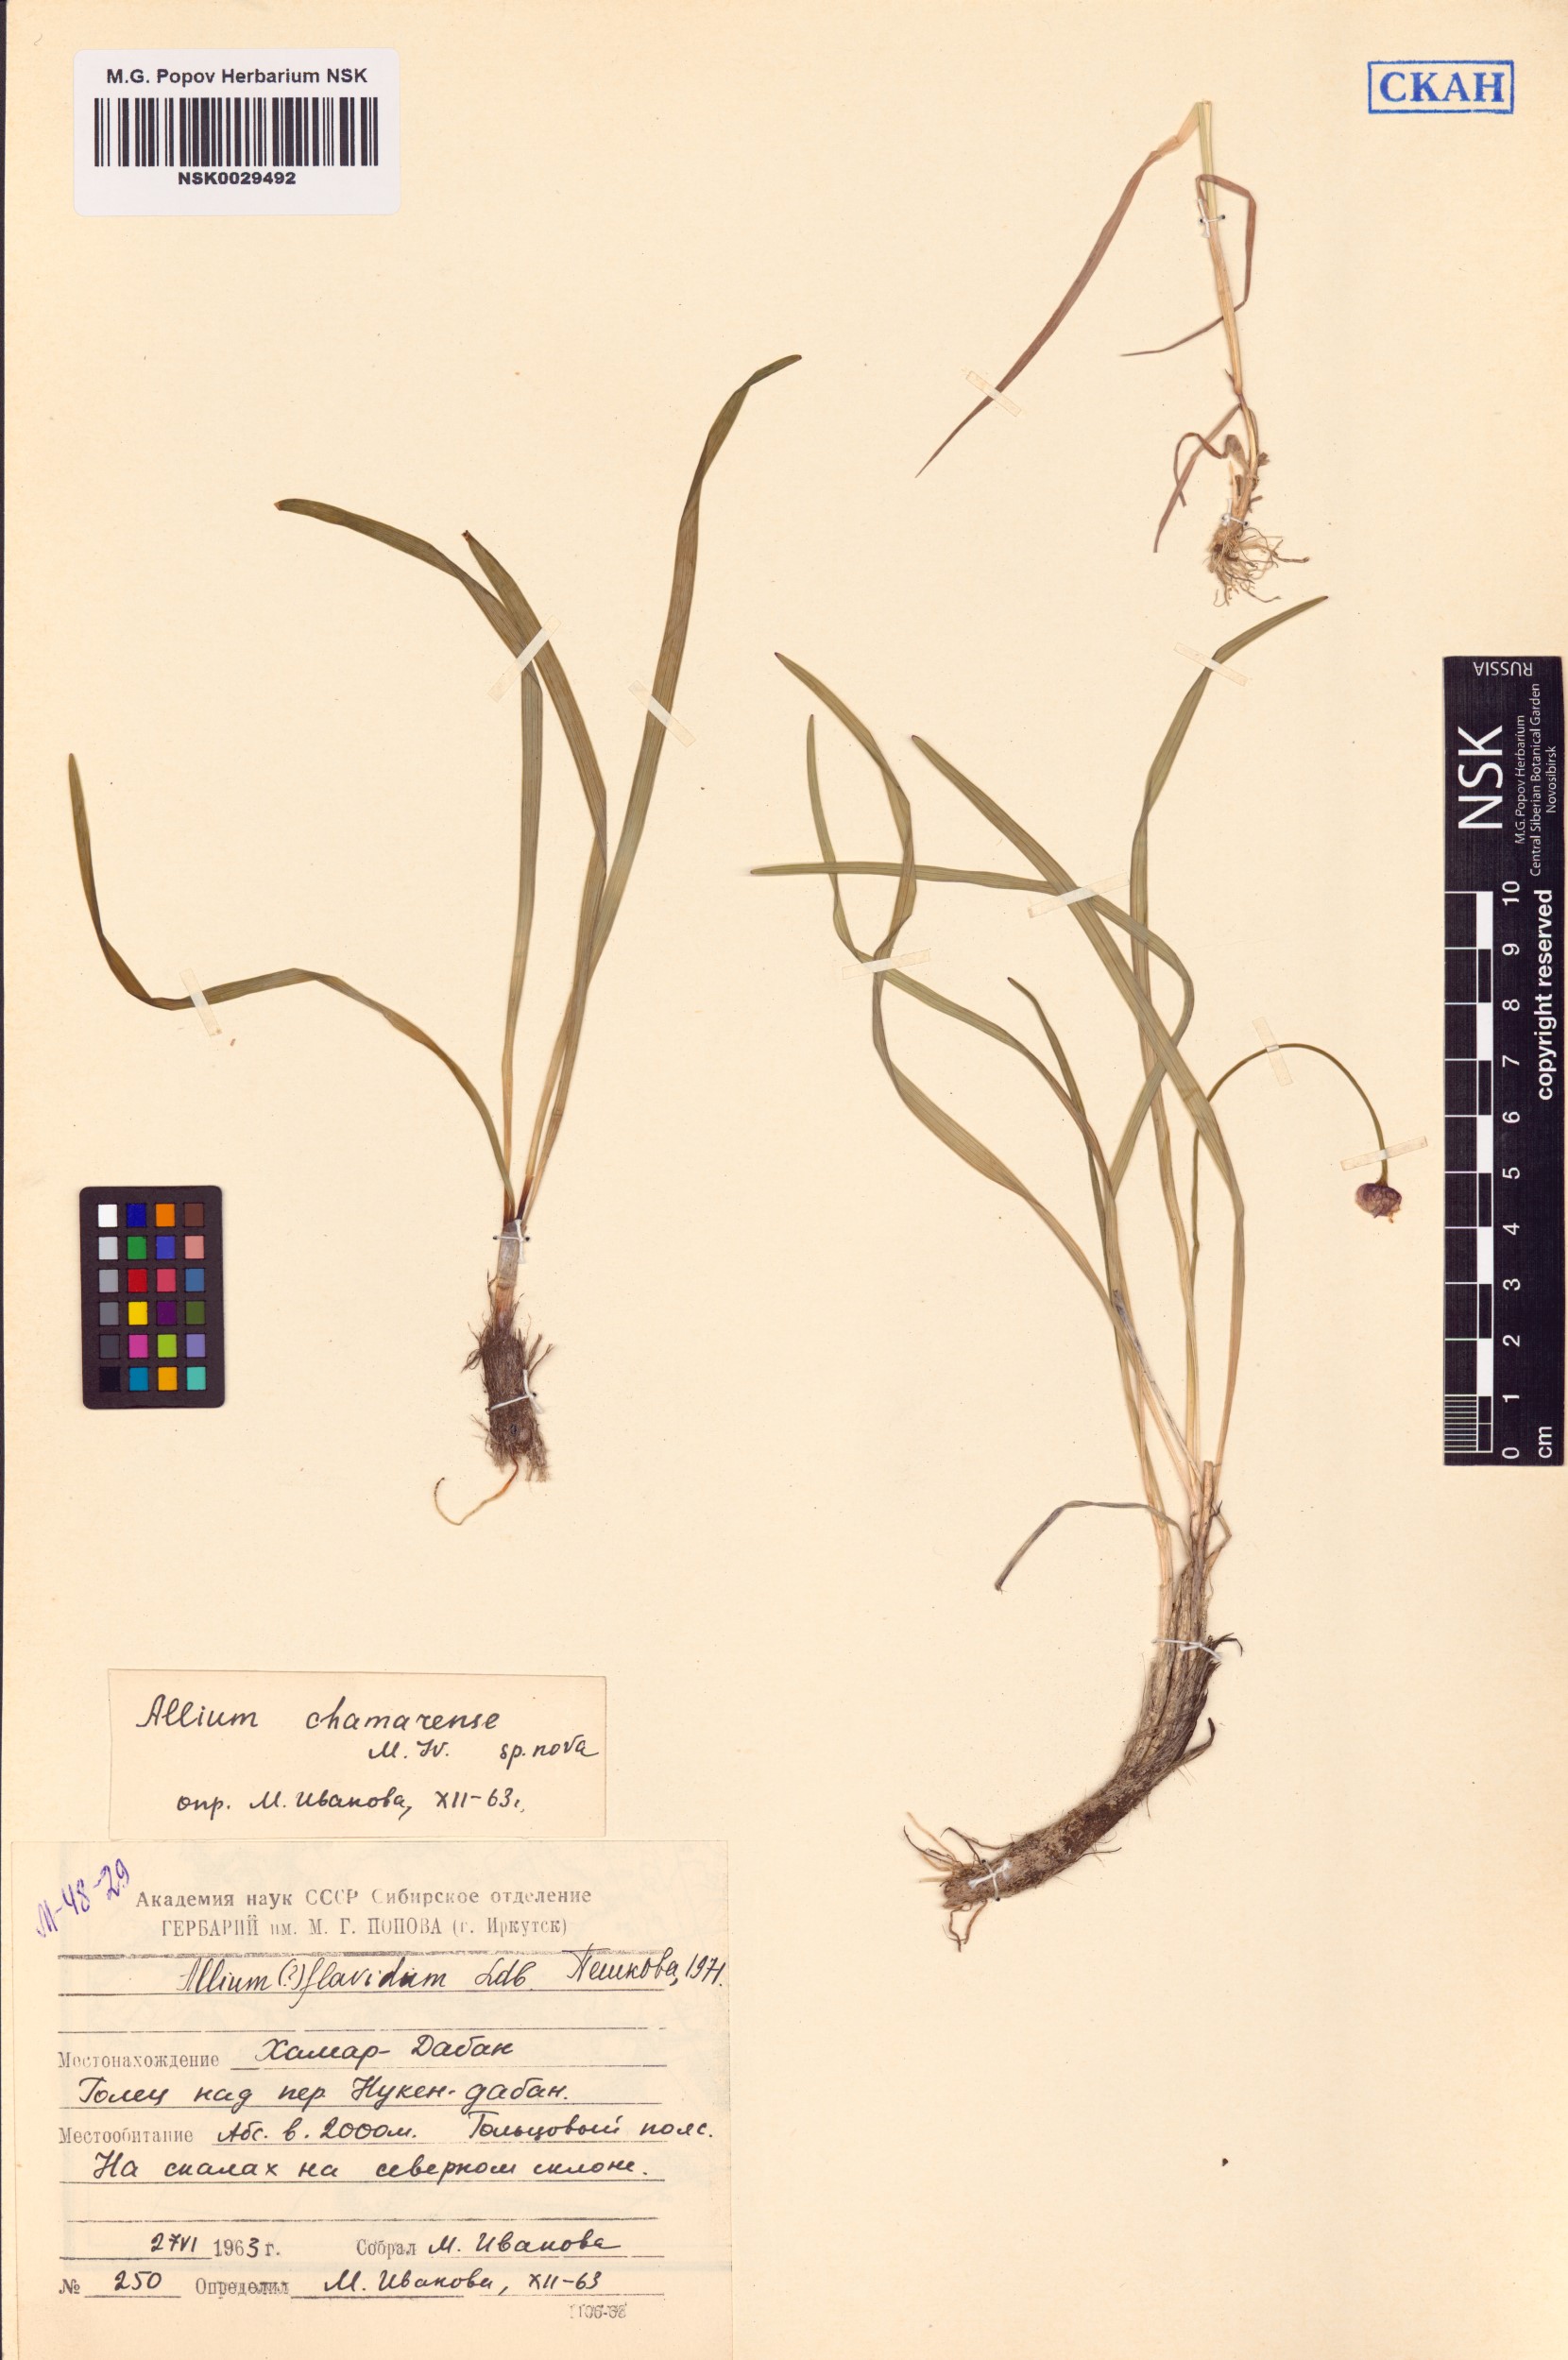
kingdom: Plantae
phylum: Tracheophyta
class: Liliopsida
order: Asparagales
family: Amaryllidaceae
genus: Allium
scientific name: Allium flavidum
